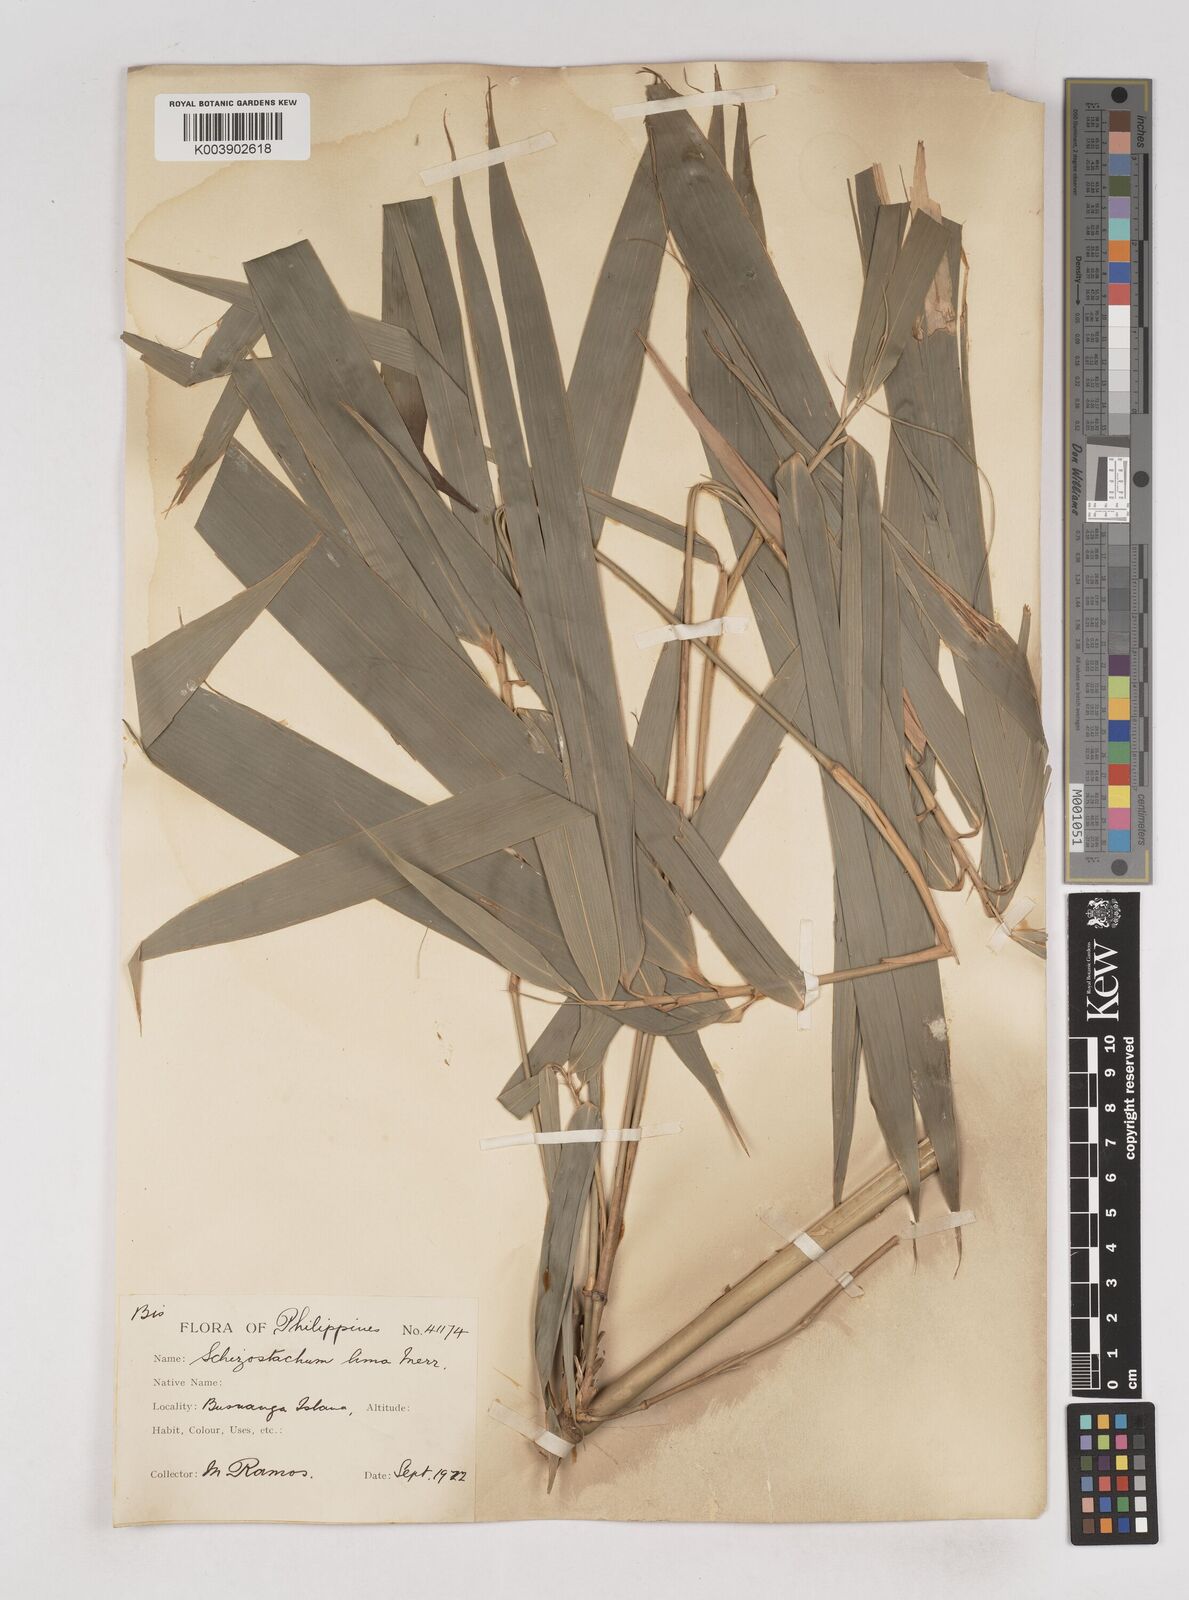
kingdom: Plantae
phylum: Tracheophyta
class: Liliopsida
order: Poales
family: Poaceae
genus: Schizostachyum
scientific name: Schizostachyum lima
